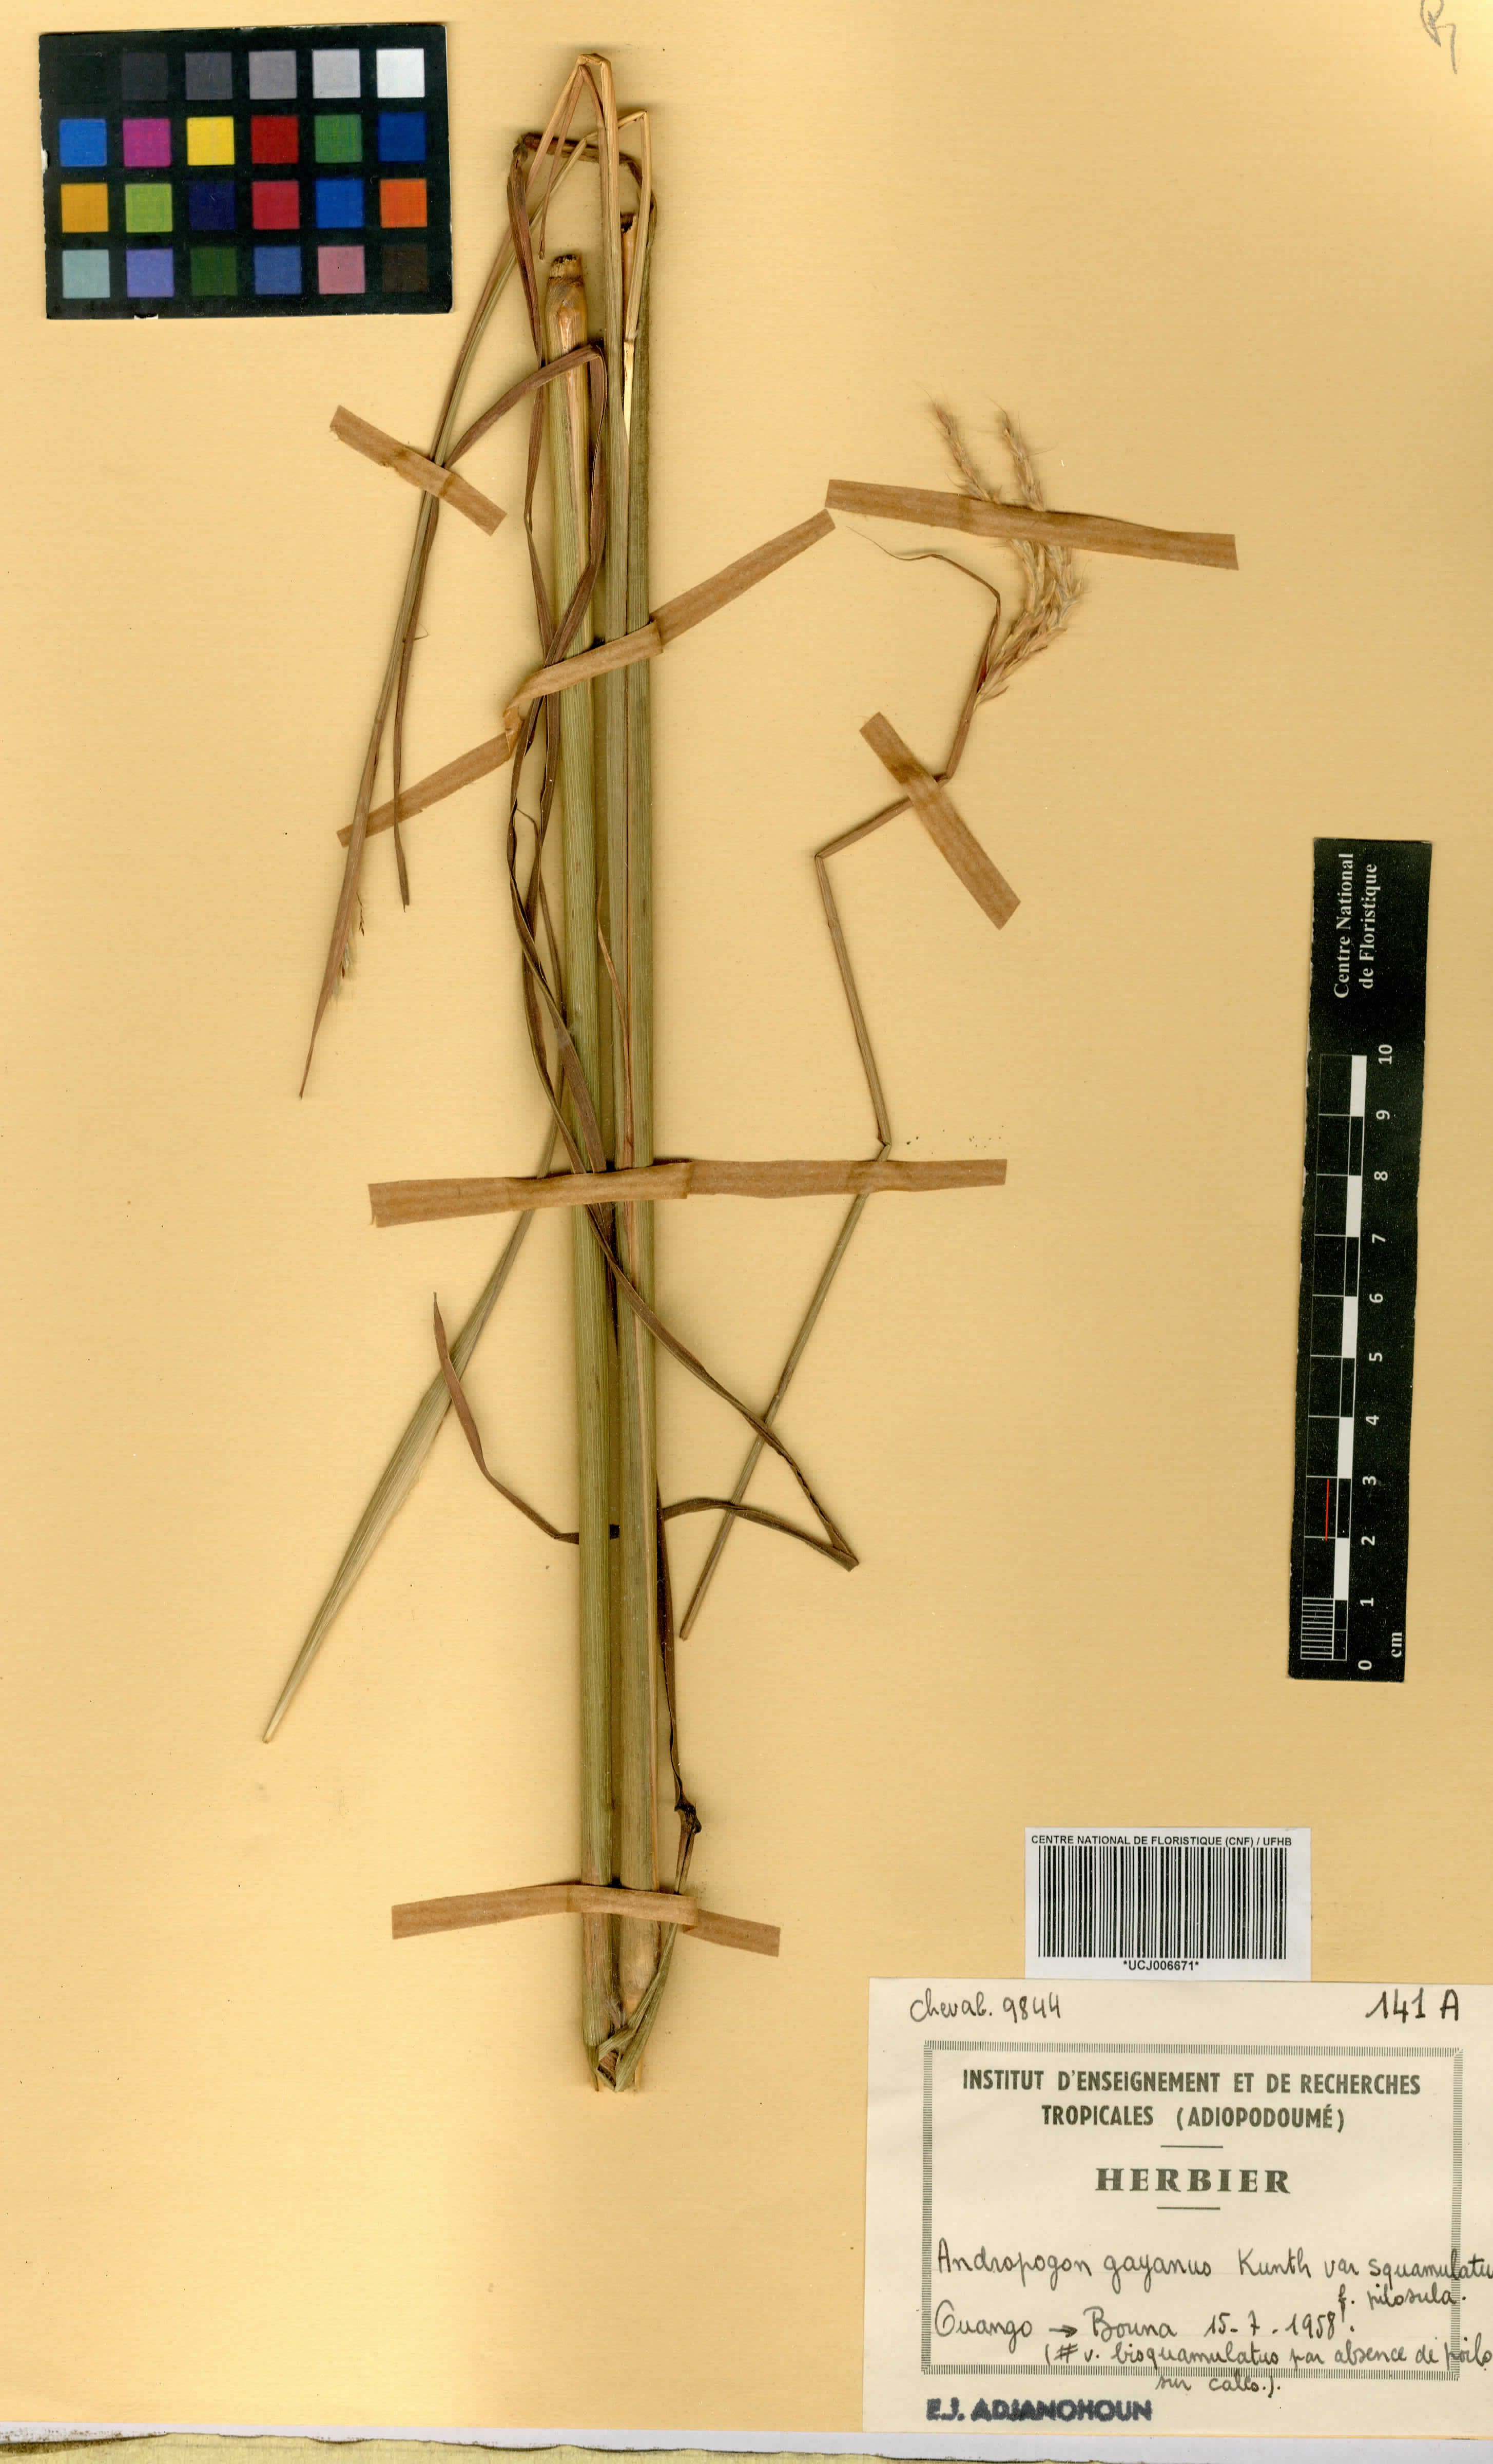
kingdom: Plantae
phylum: Tracheophyta
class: Liliopsida
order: Poales
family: Poaceae
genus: Andropogon
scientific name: Andropogon gayanus
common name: Tambuki grass
